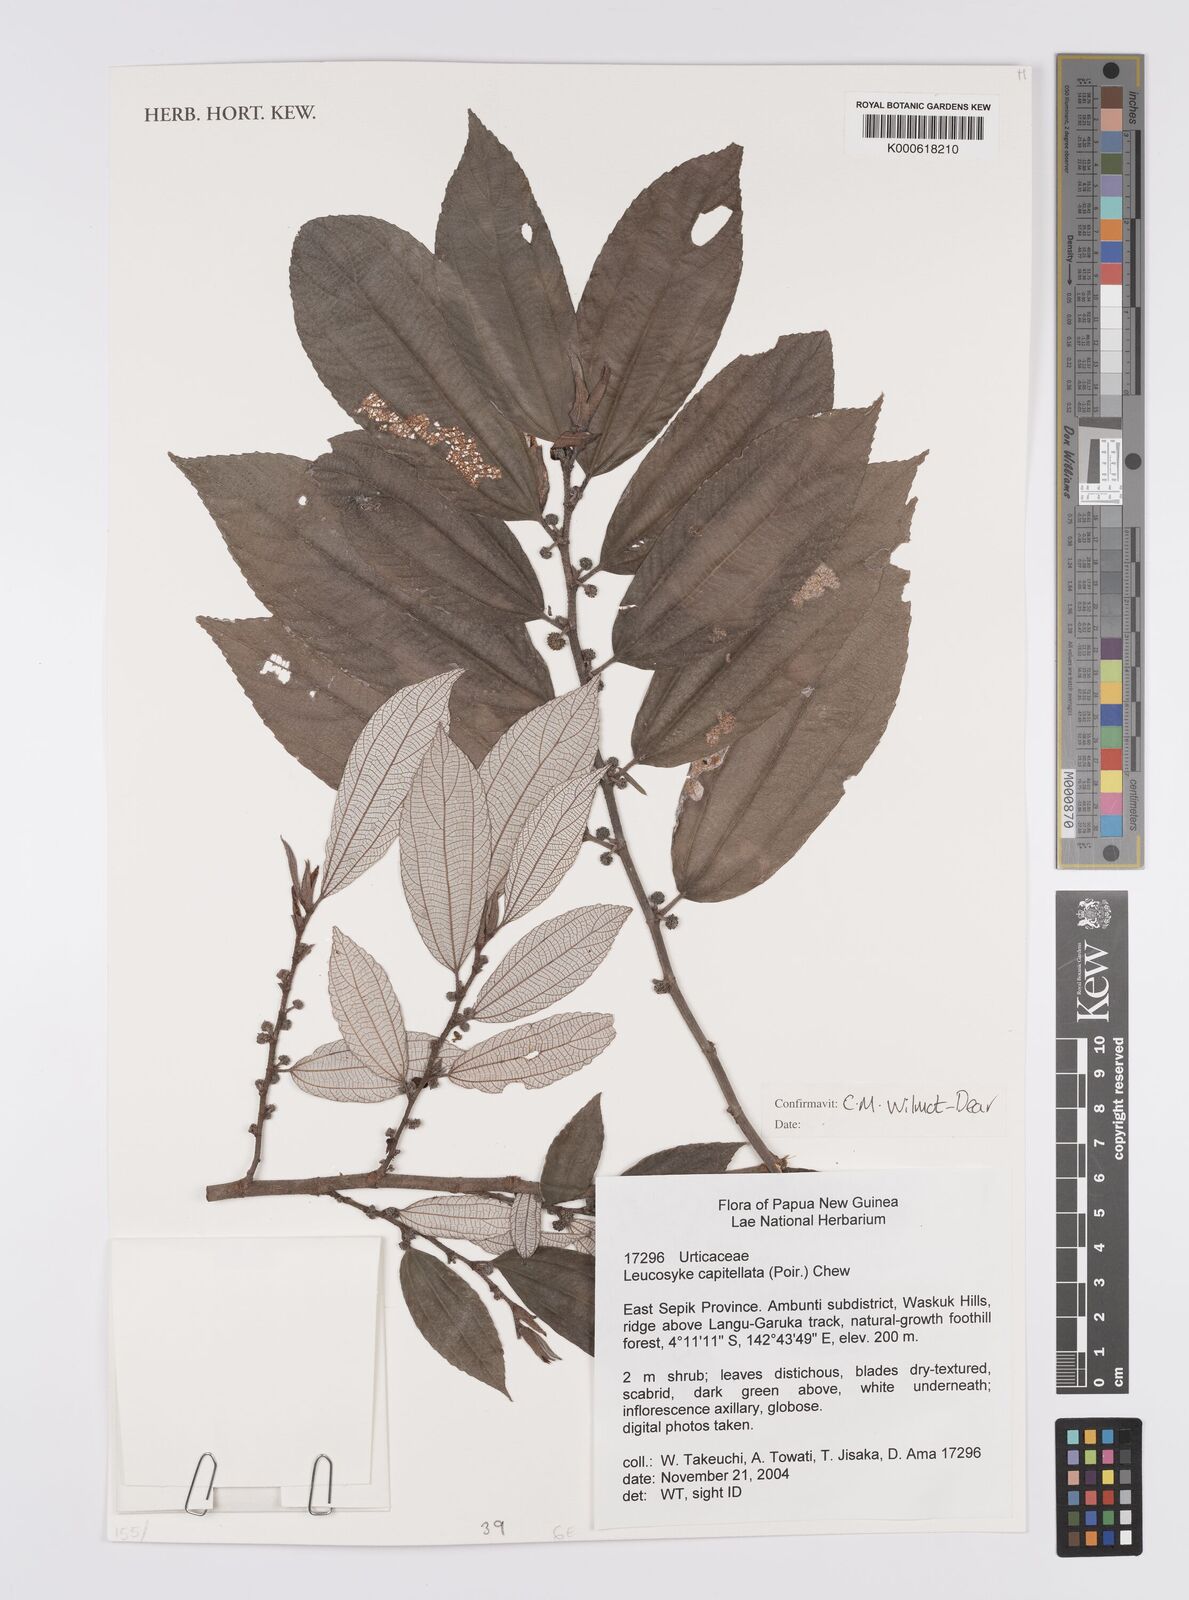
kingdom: Plantae
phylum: Tracheophyta
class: Magnoliopsida
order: Rosales
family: Urticaceae
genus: Leucosyke
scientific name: Leucosyke
